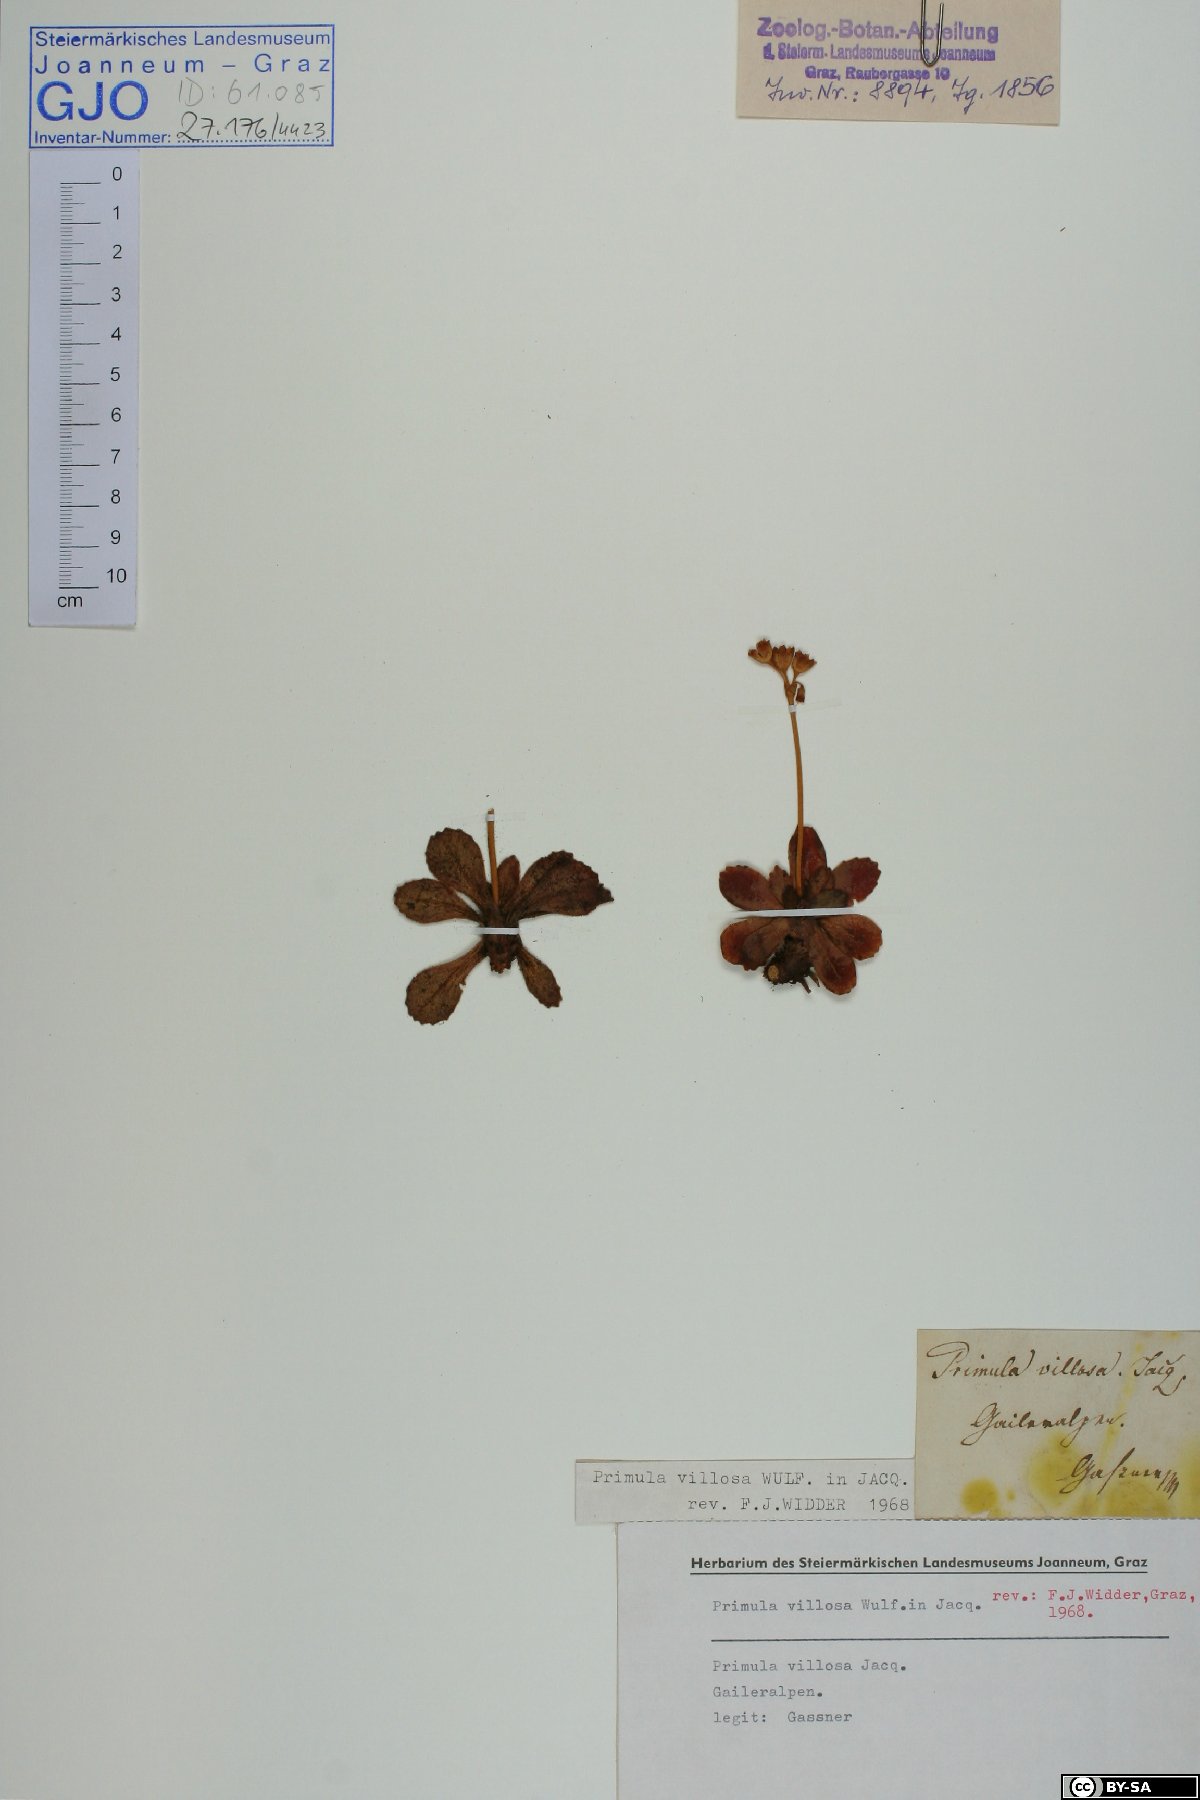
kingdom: Plantae
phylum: Tracheophyta
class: Magnoliopsida
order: Ericales
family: Primulaceae
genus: Primula
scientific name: Primula villosa
